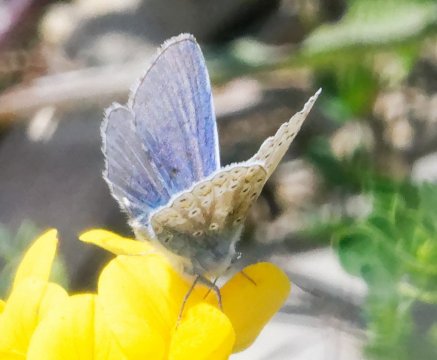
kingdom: Animalia
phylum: Arthropoda
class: Insecta
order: Lepidoptera
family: Lycaenidae
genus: Polyommatus
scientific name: Polyommatus icarus
